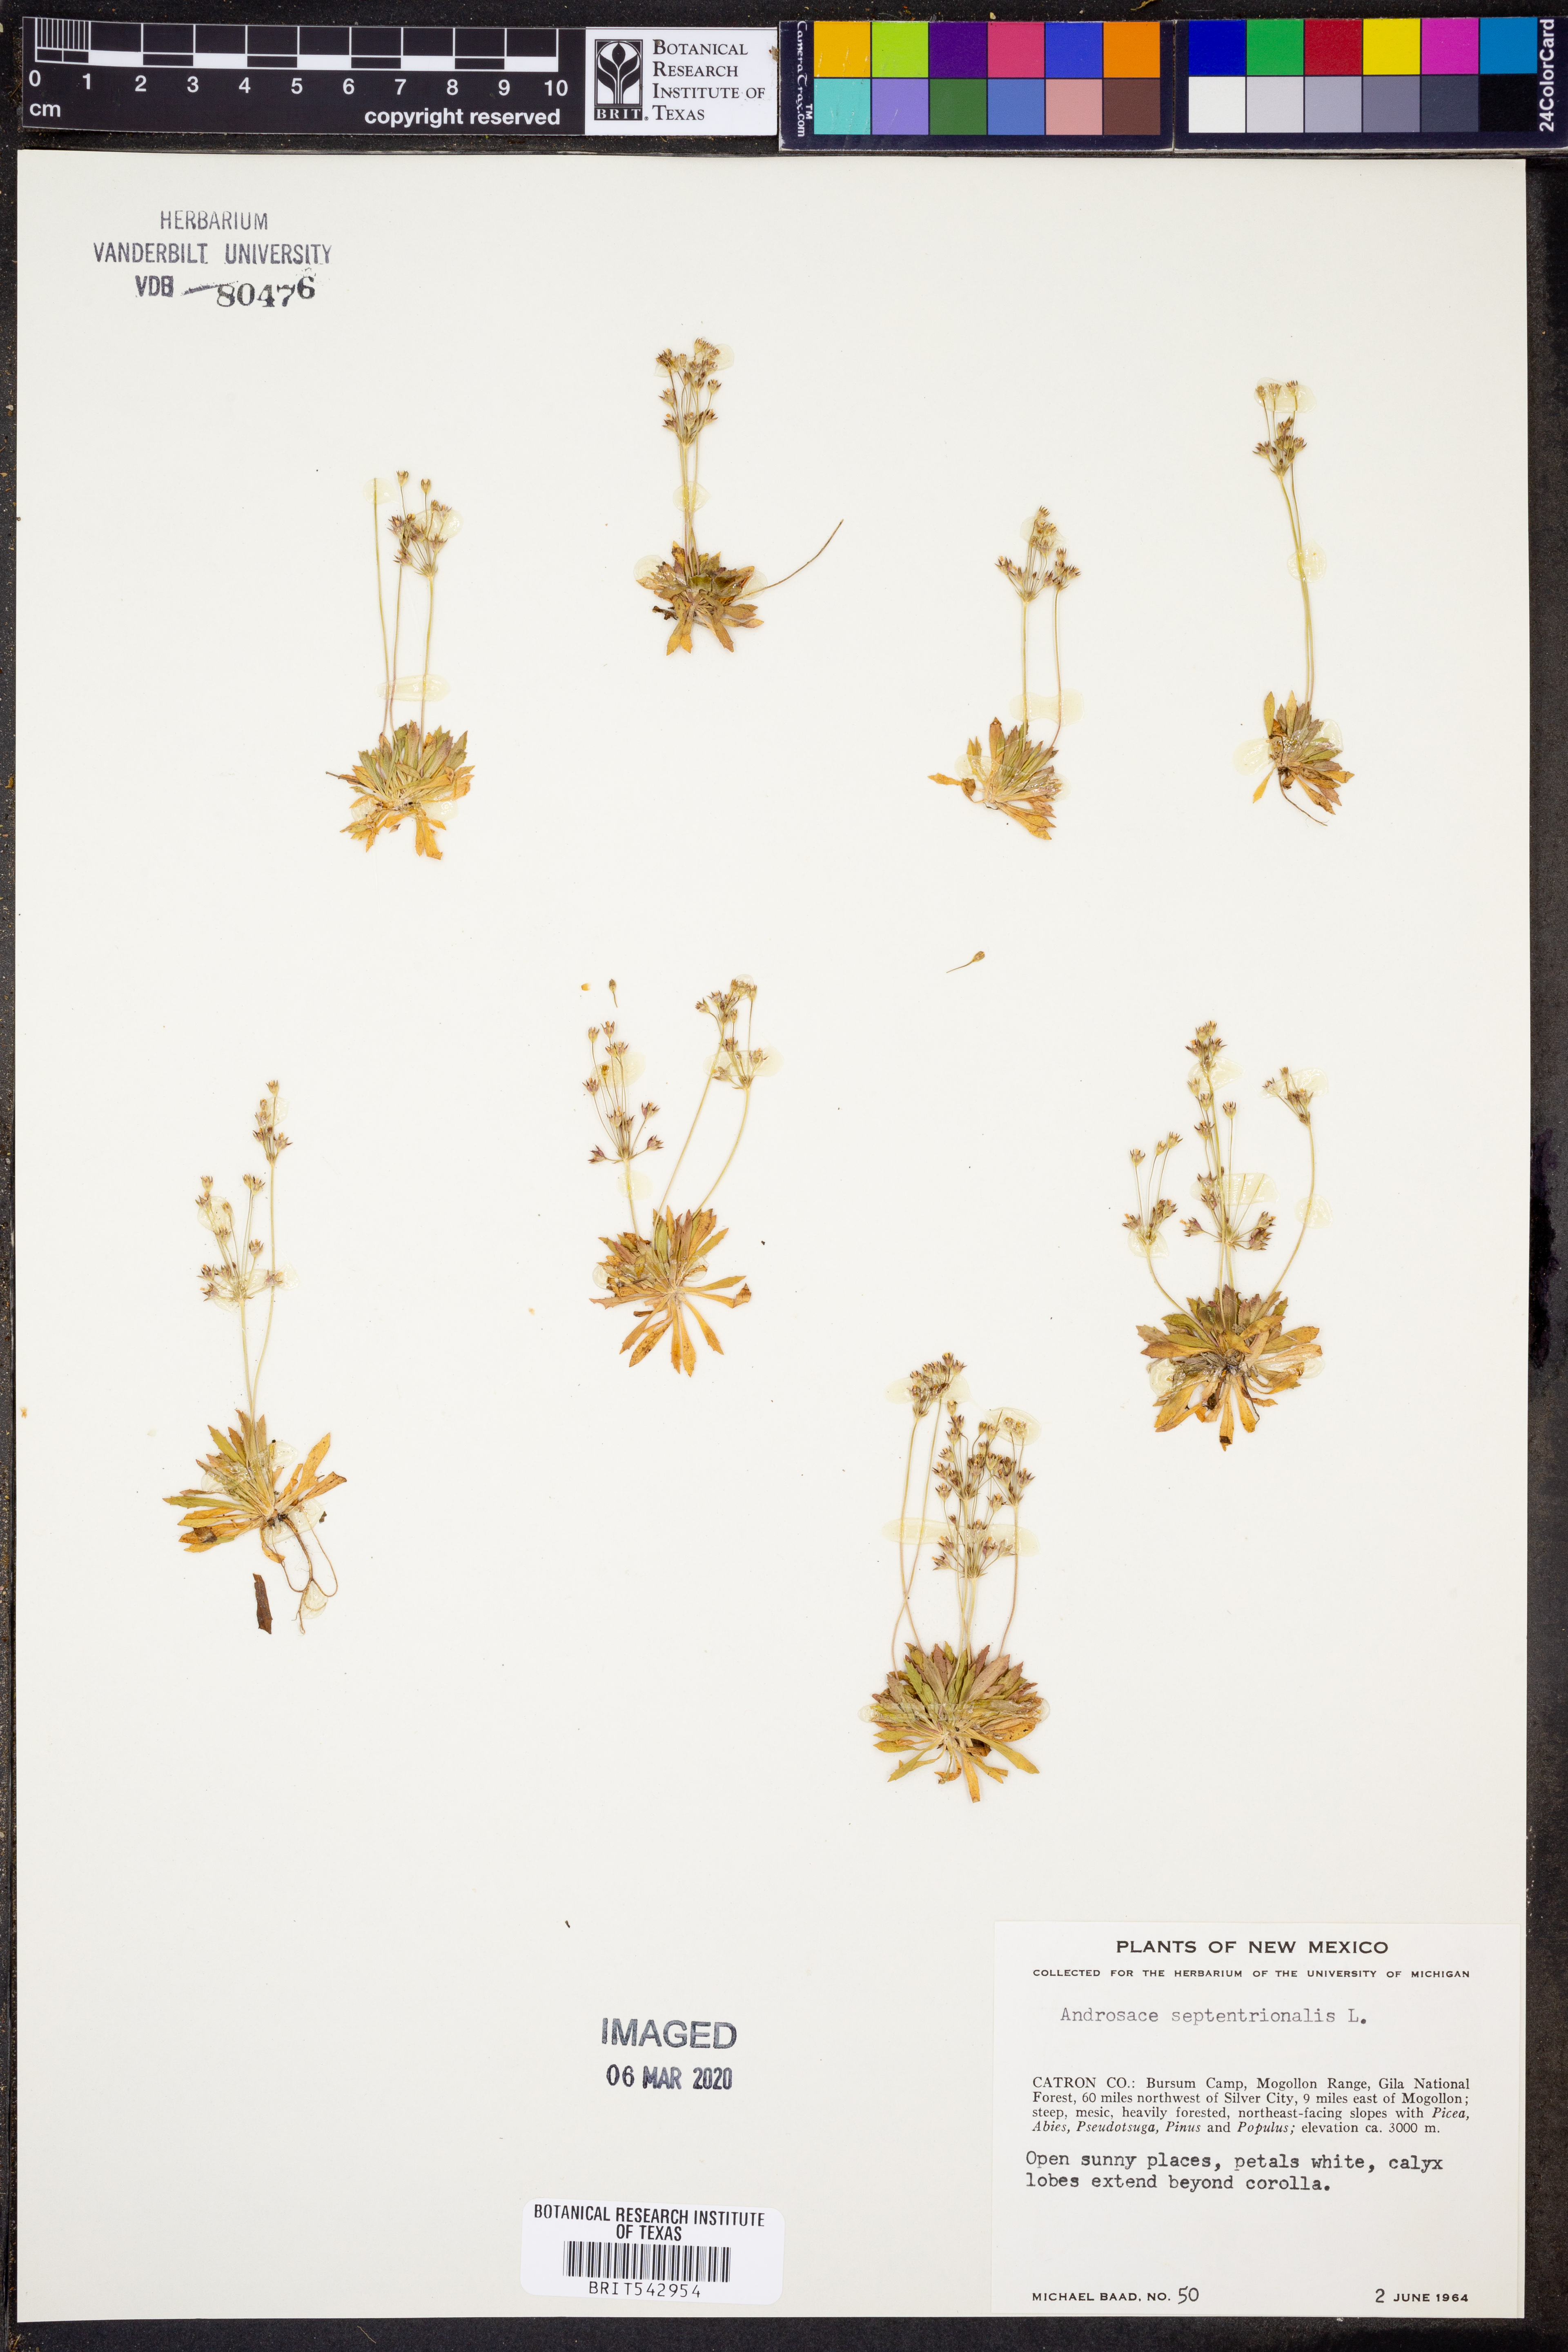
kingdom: Plantae
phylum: Tracheophyta
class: Magnoliopsida
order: Ericales
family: Primulaceae
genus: Androsace
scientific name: Androsace septentrionalis
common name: Hairy northern fairy-candelabra
